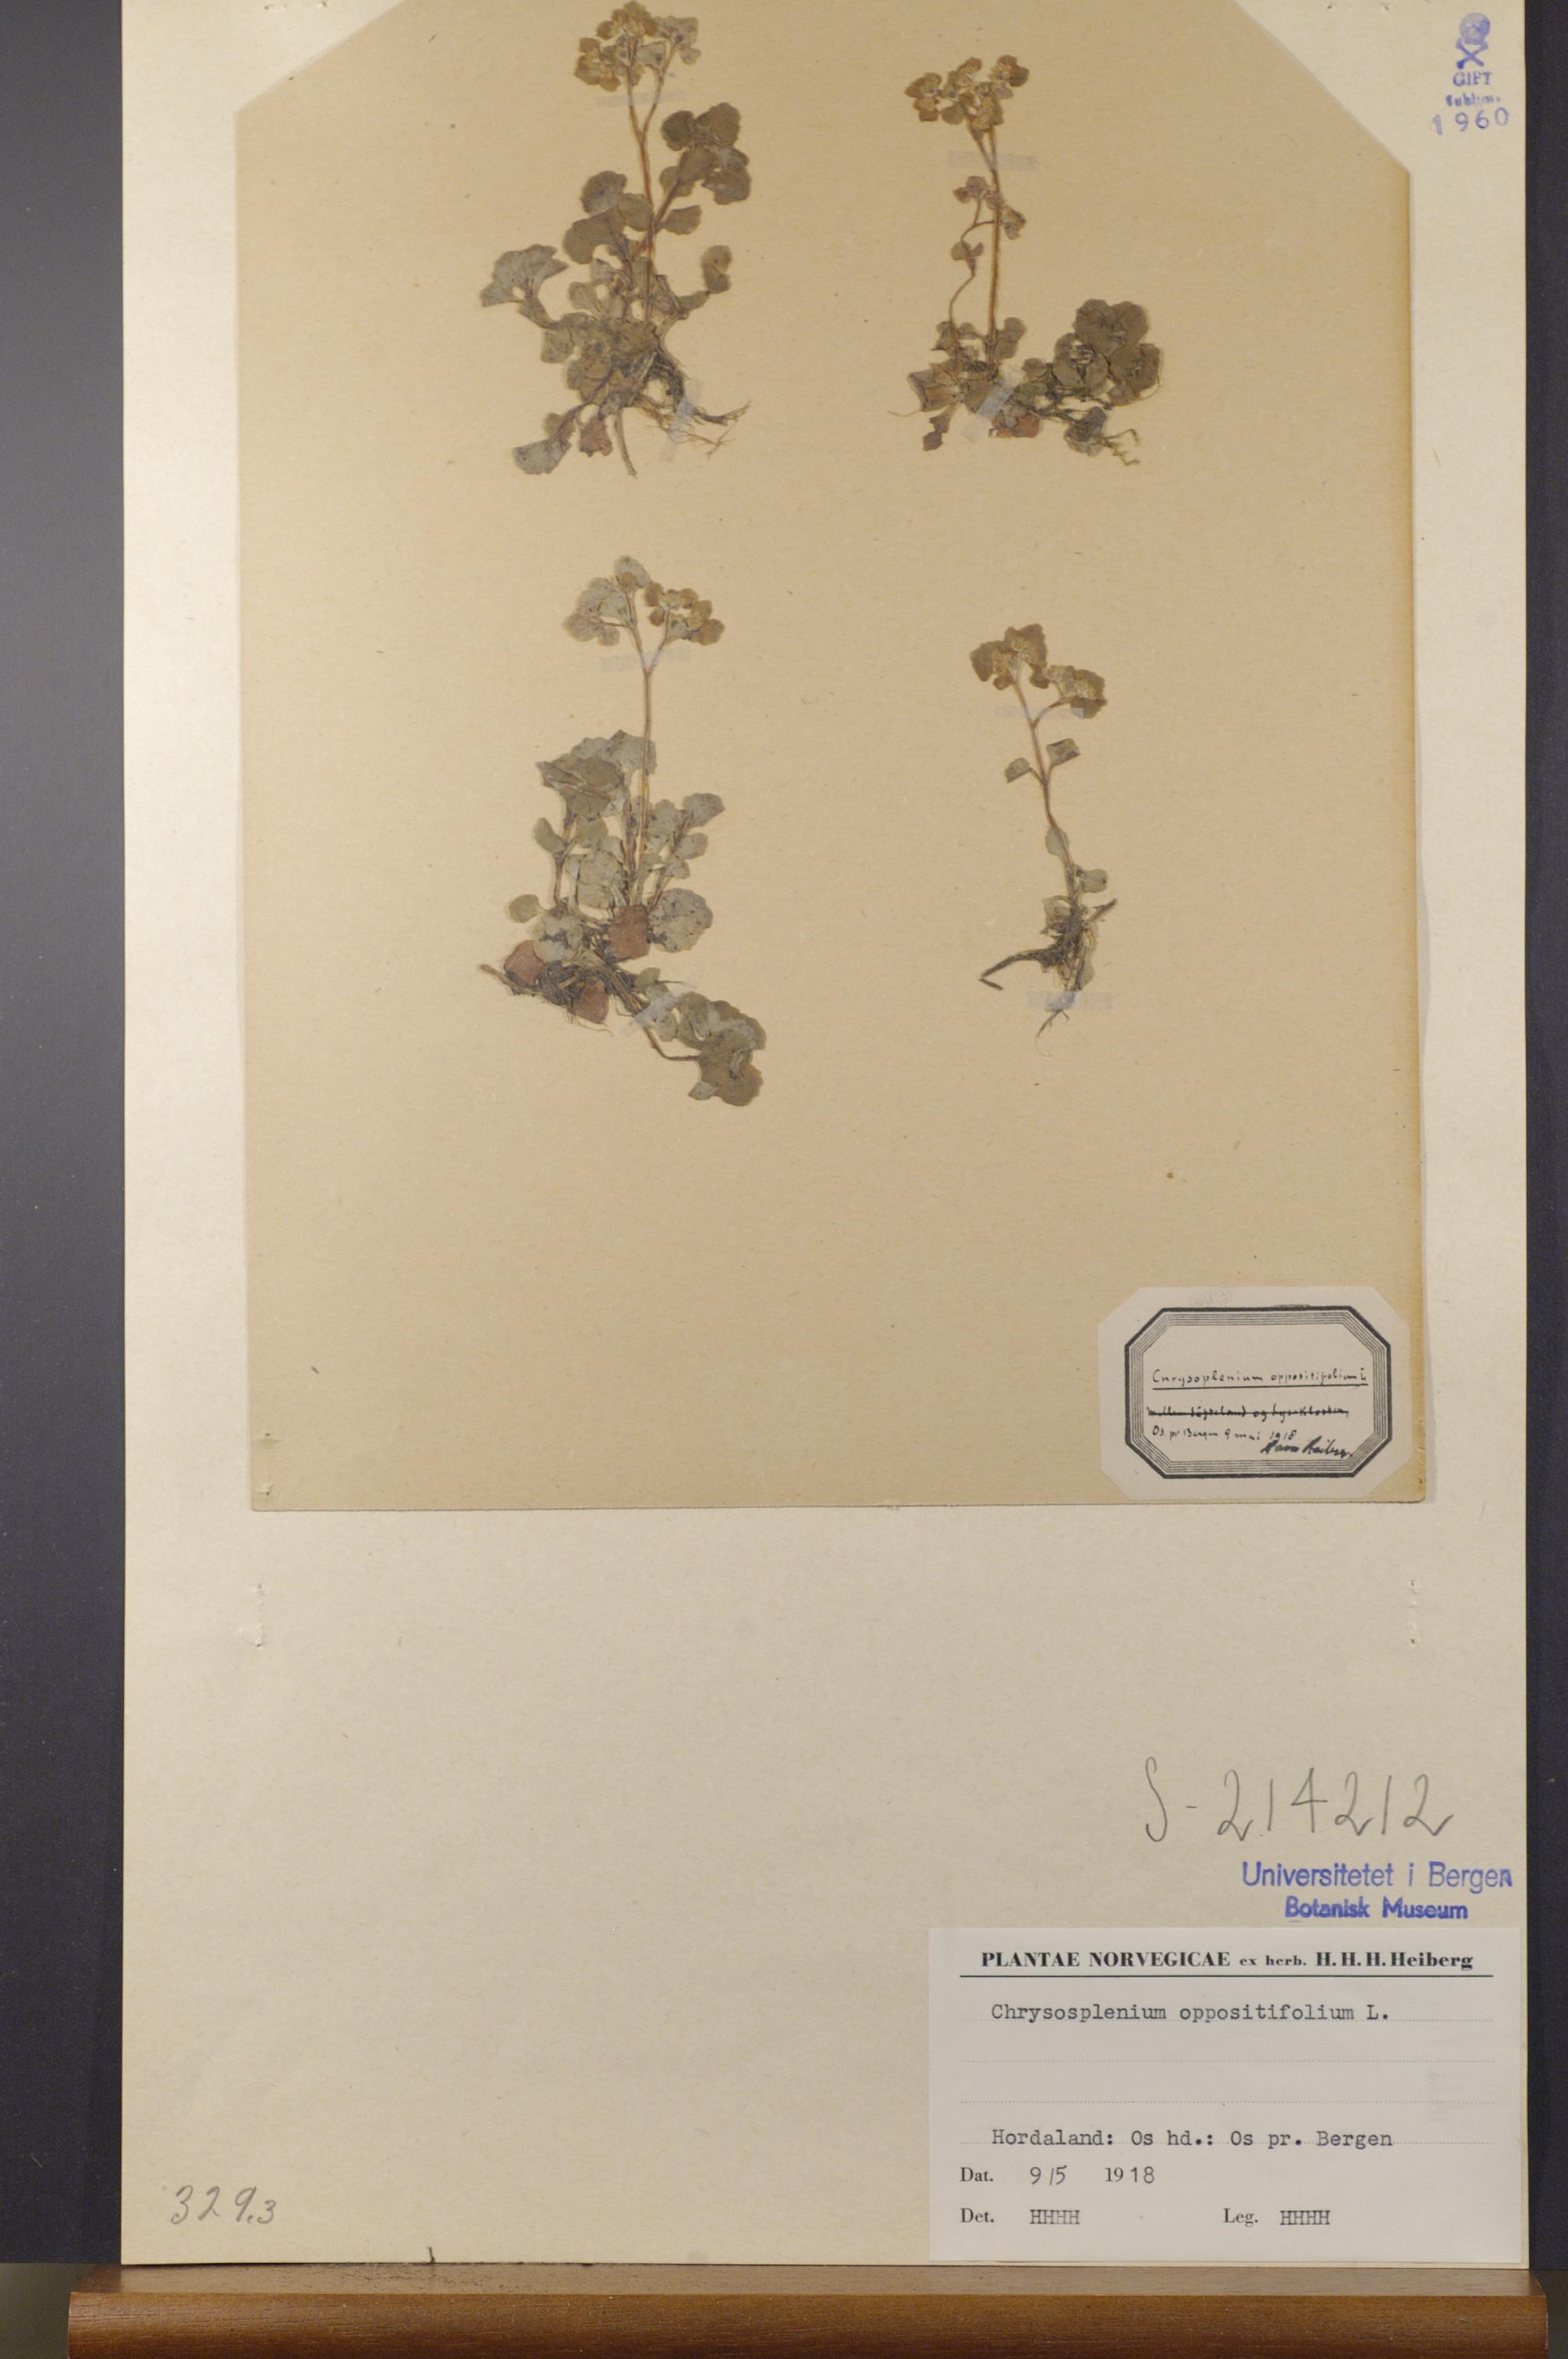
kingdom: Plantae
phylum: Tracheophyta
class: Magnoliopsida
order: Saxifragales
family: Saxifragaceae
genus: Chrysosplenium
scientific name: Chrysosplenium oppositifolium
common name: Opposite-leaved golden-saxifrage
